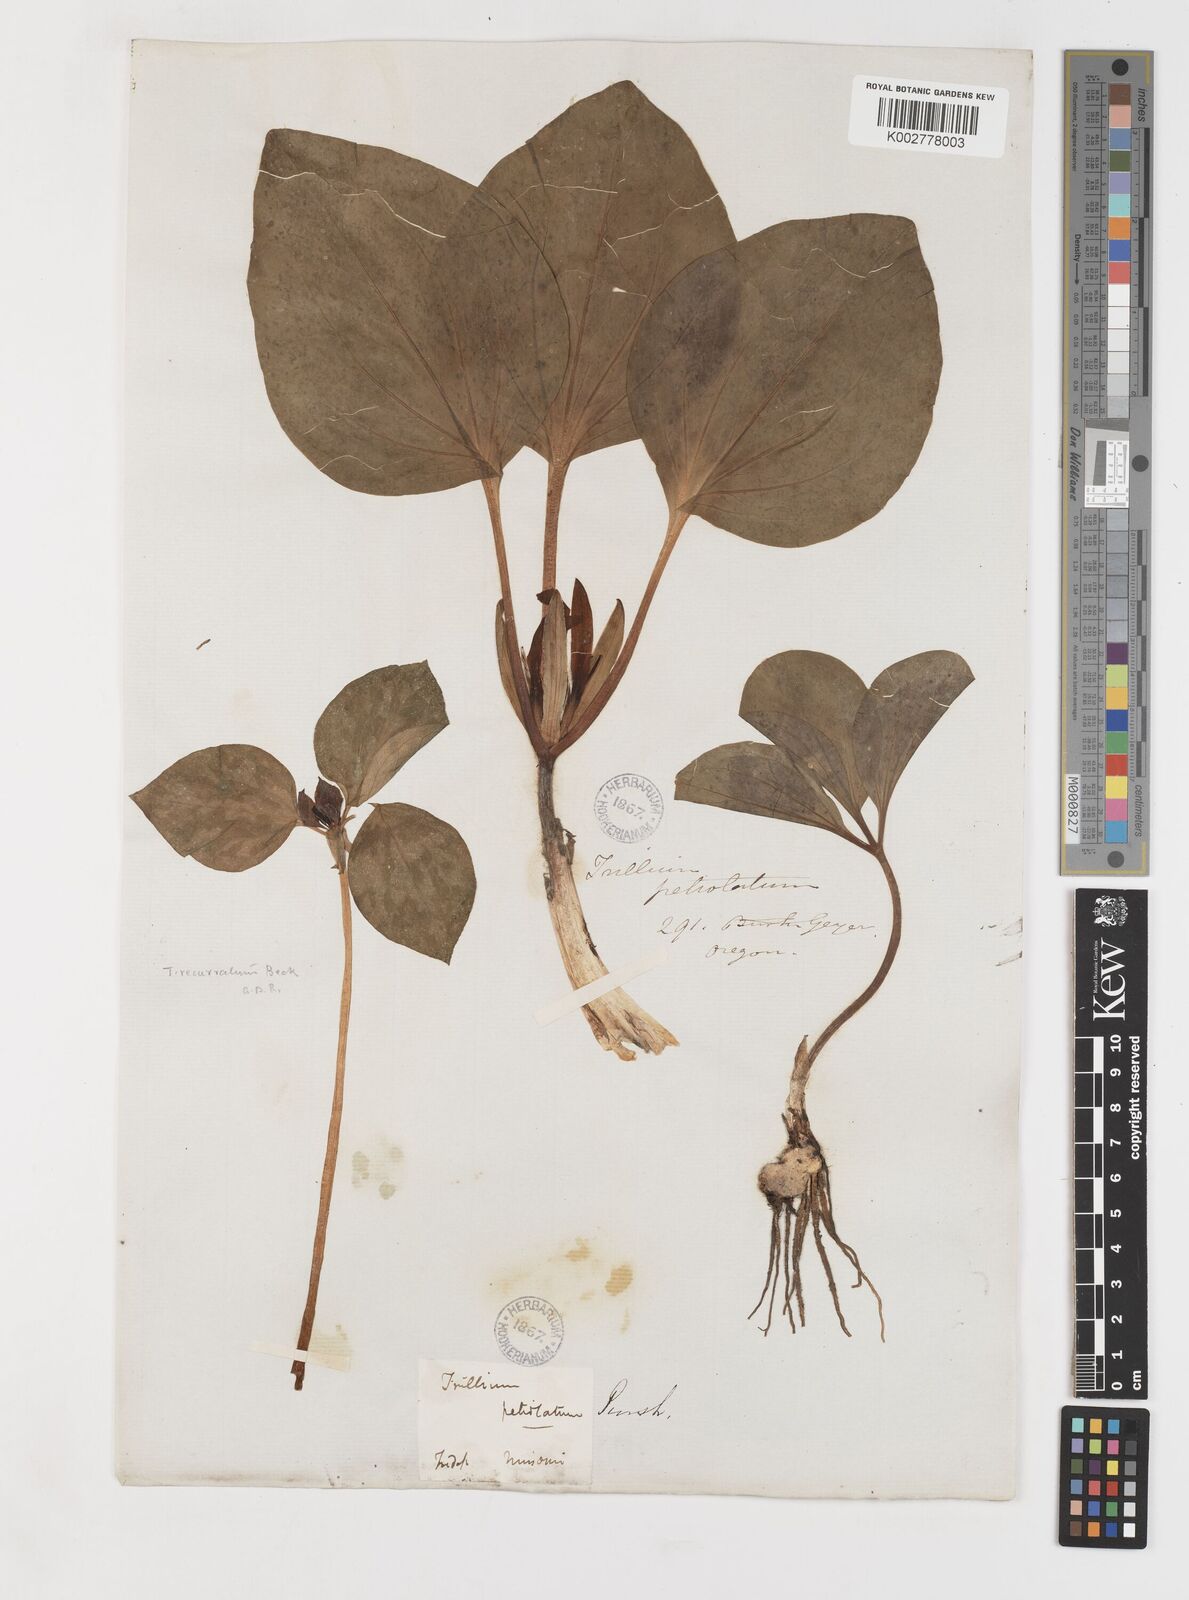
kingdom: Plantae
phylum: Tracheophyta
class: Liliopsida
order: Liliales
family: Melanthiaceae
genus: Trillium
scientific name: Trillium petiolatum
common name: Idaho trillium
